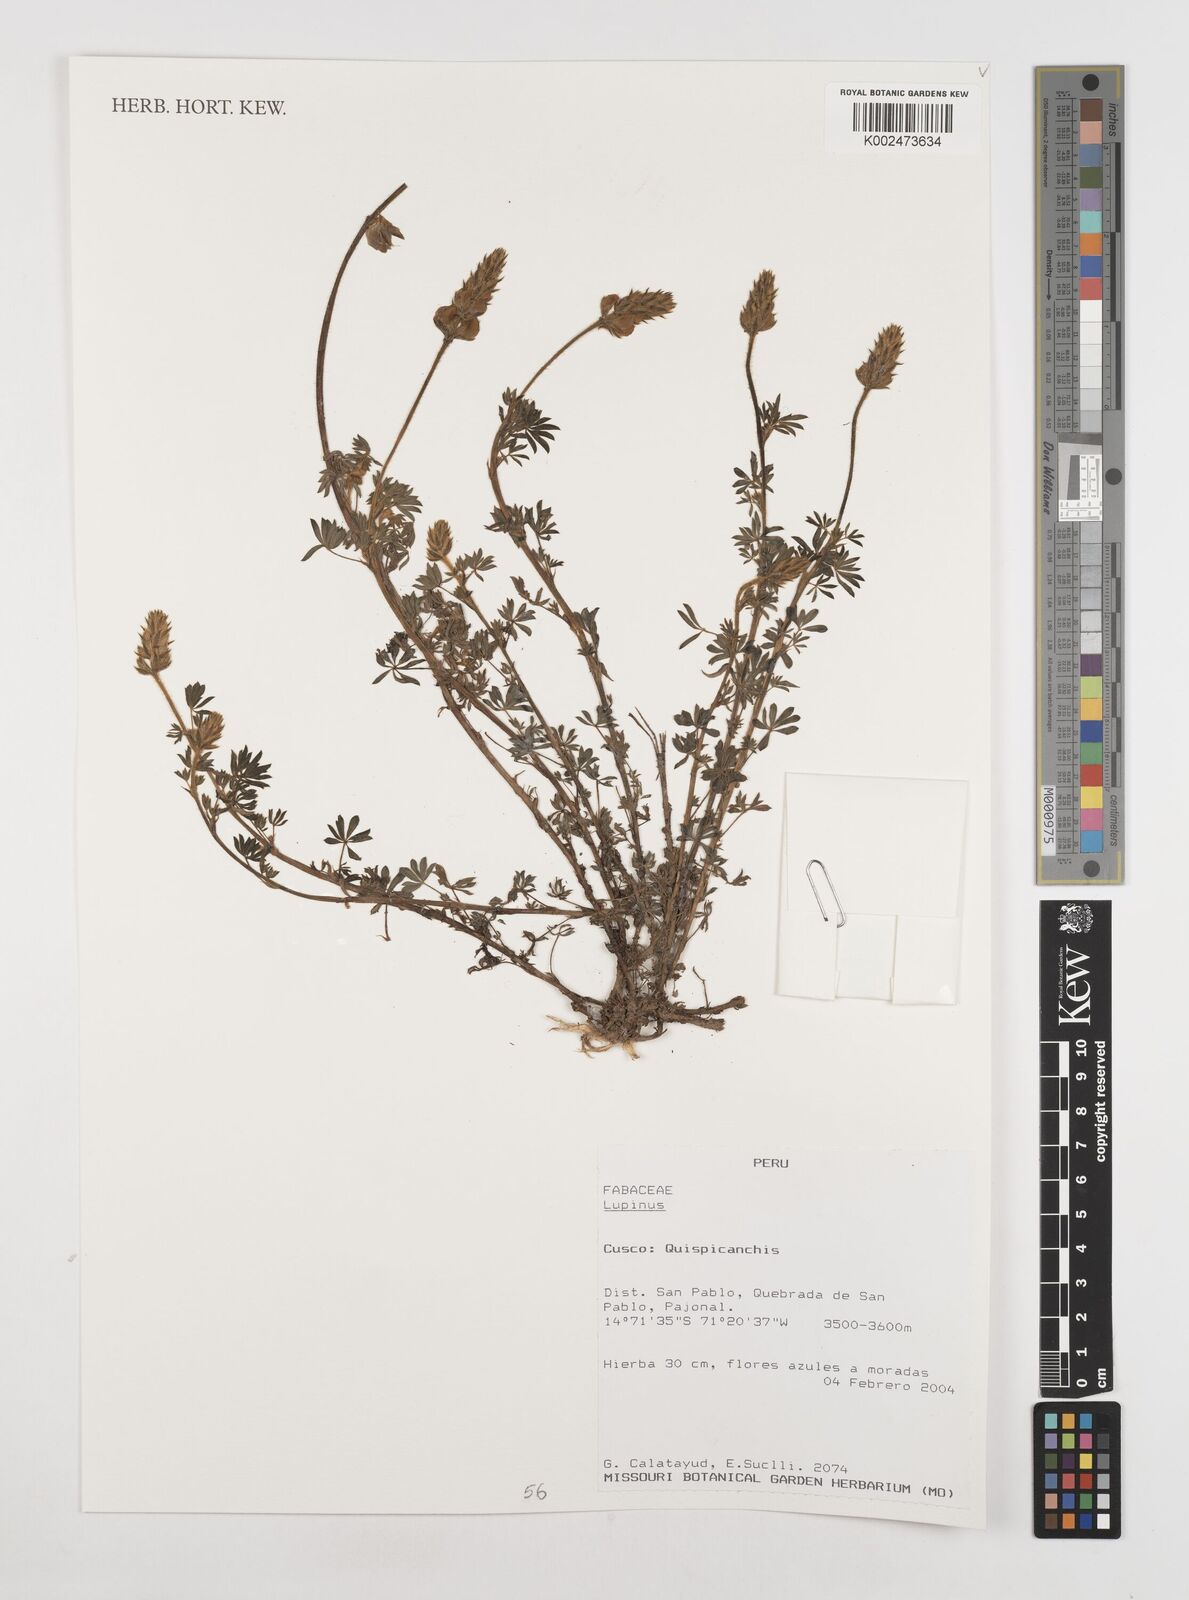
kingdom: Plantae
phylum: Tracheophyta
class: Magnoliopsida
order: Fabales
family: Fabaceae
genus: Lupinus
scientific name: Lupinus
